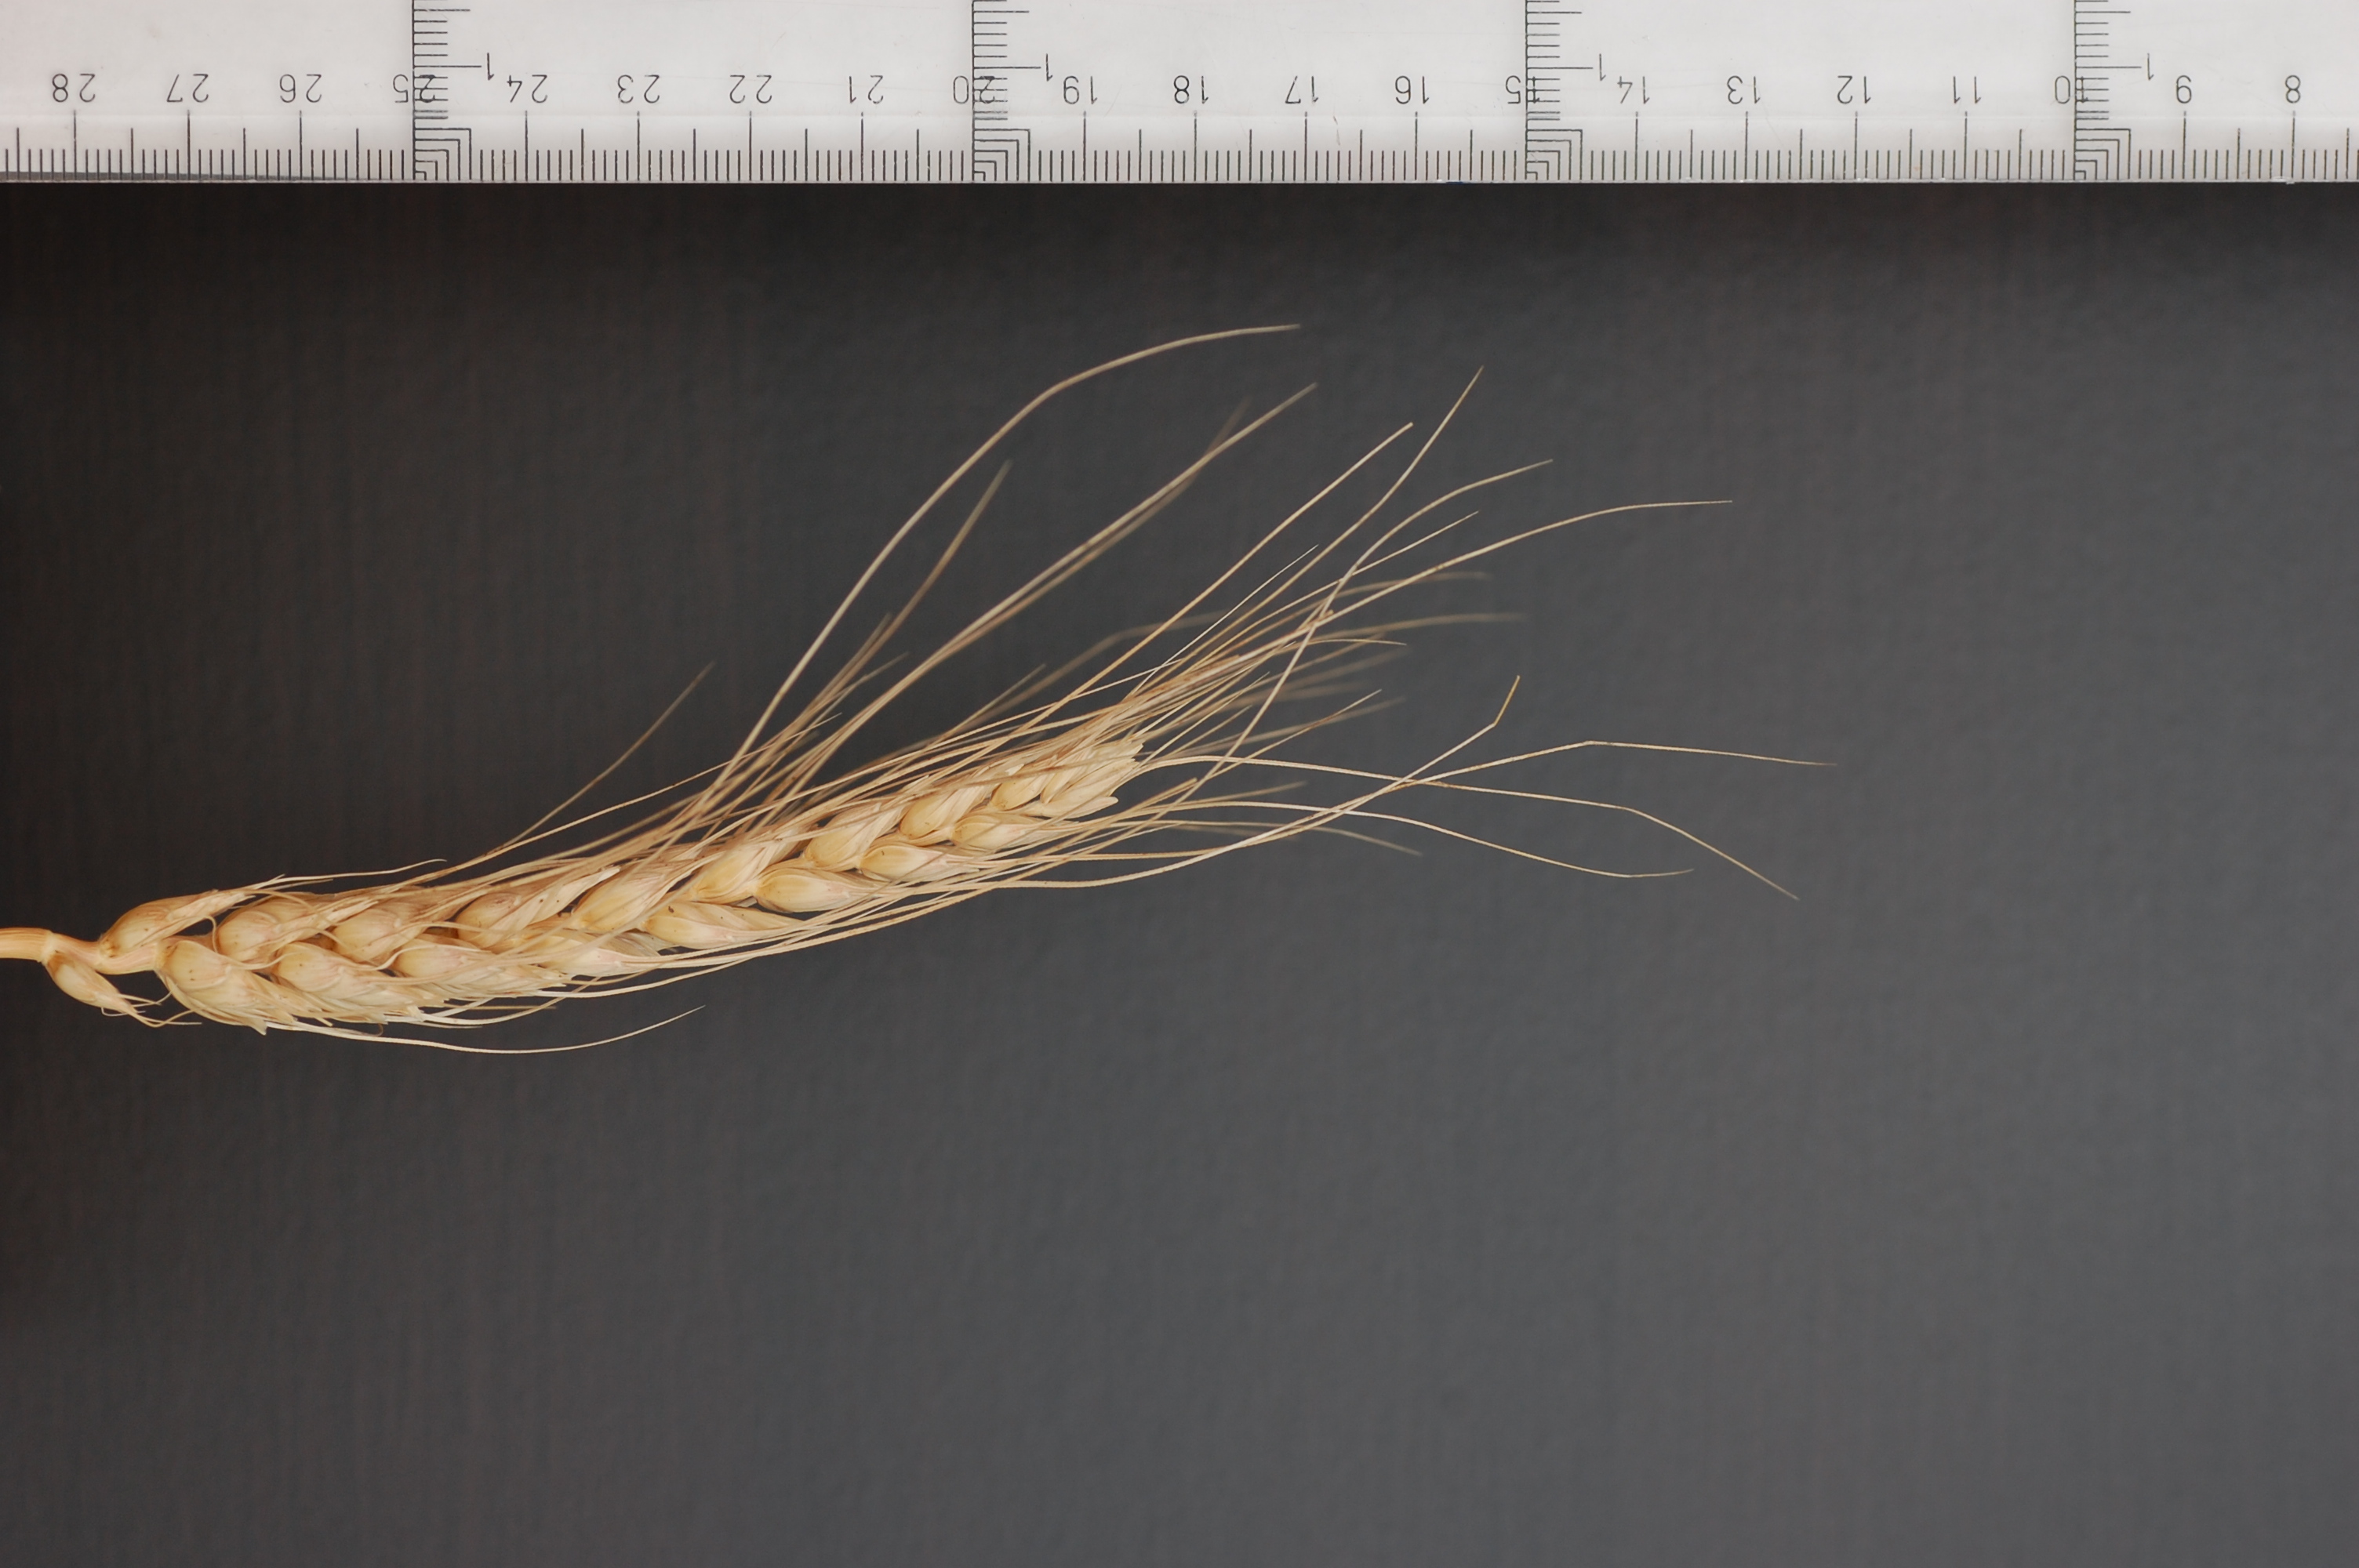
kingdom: Plantae
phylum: Tracheophyta
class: Liliopsida
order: Poales
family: Poaceae
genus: Triticum
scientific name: Triticum aestivum
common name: Common wheat
